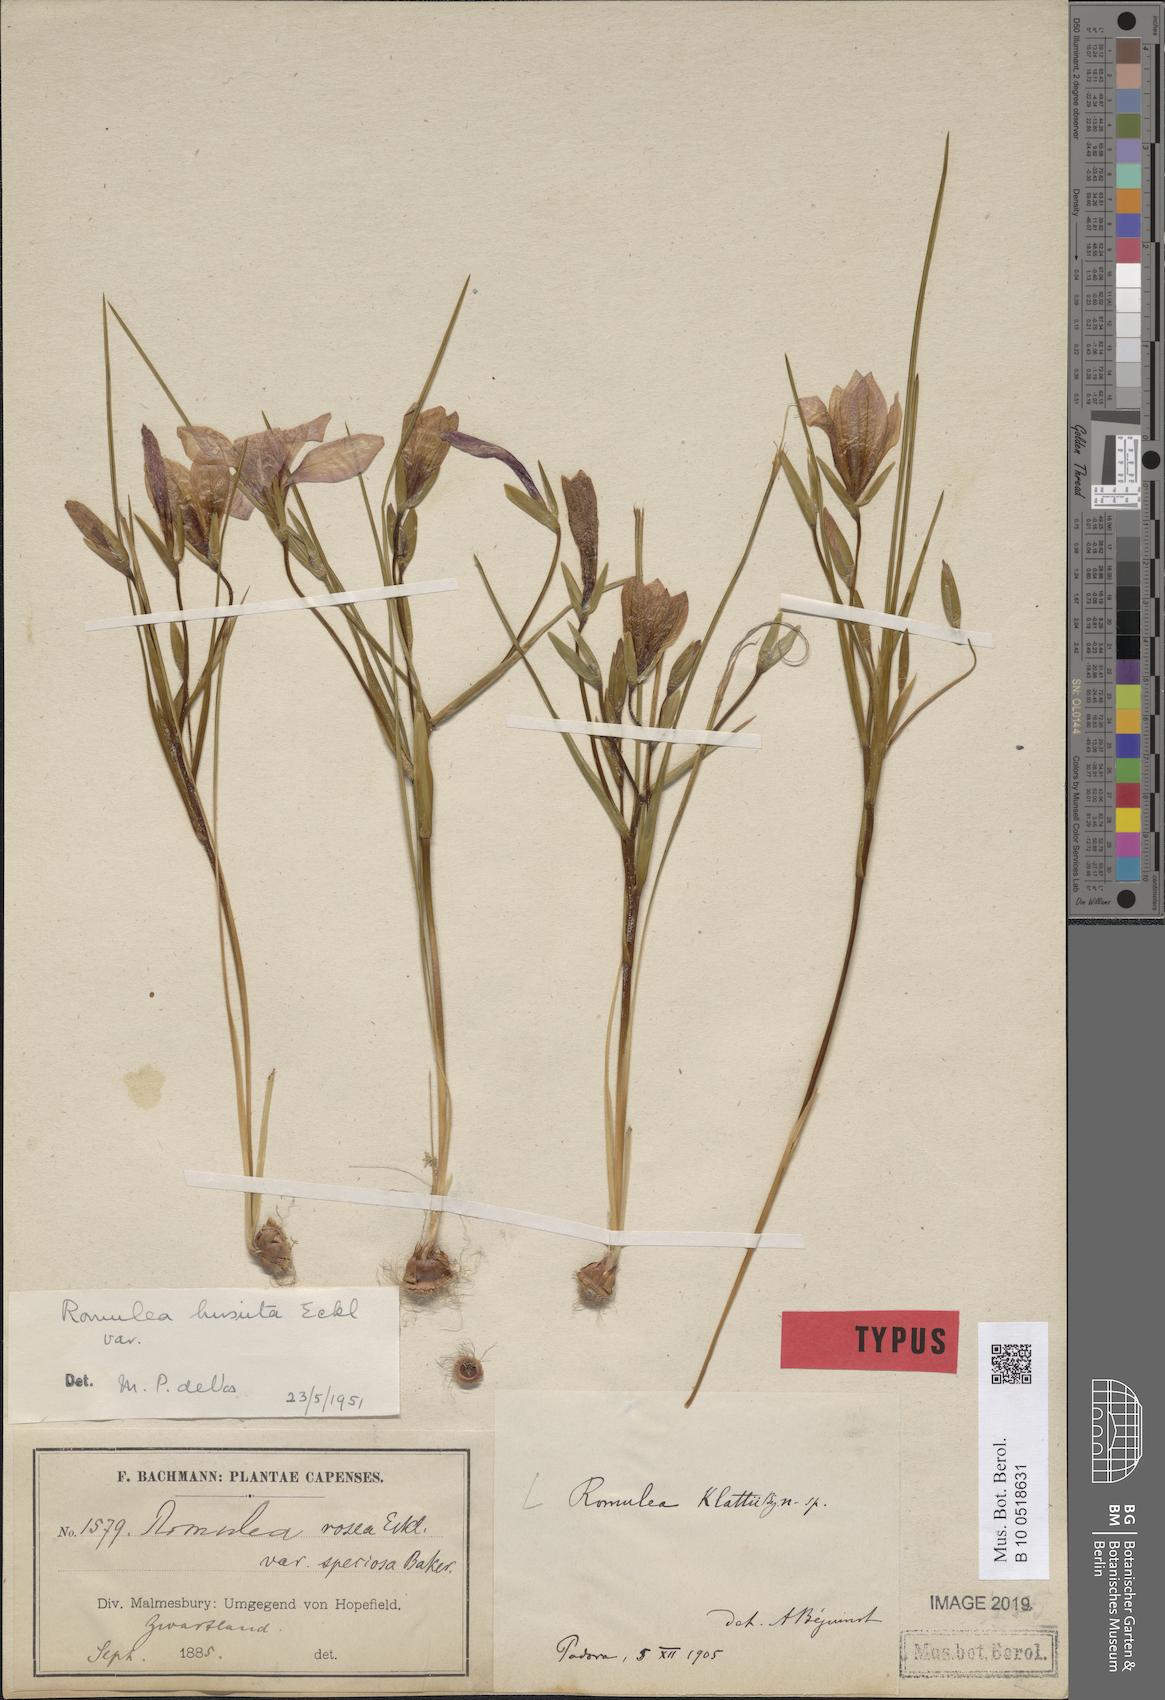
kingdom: Plantae
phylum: Tracheophyta
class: Liliopsida
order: Asparagales
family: Iridaceae
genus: Romulea
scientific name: Romulea hirsuta
